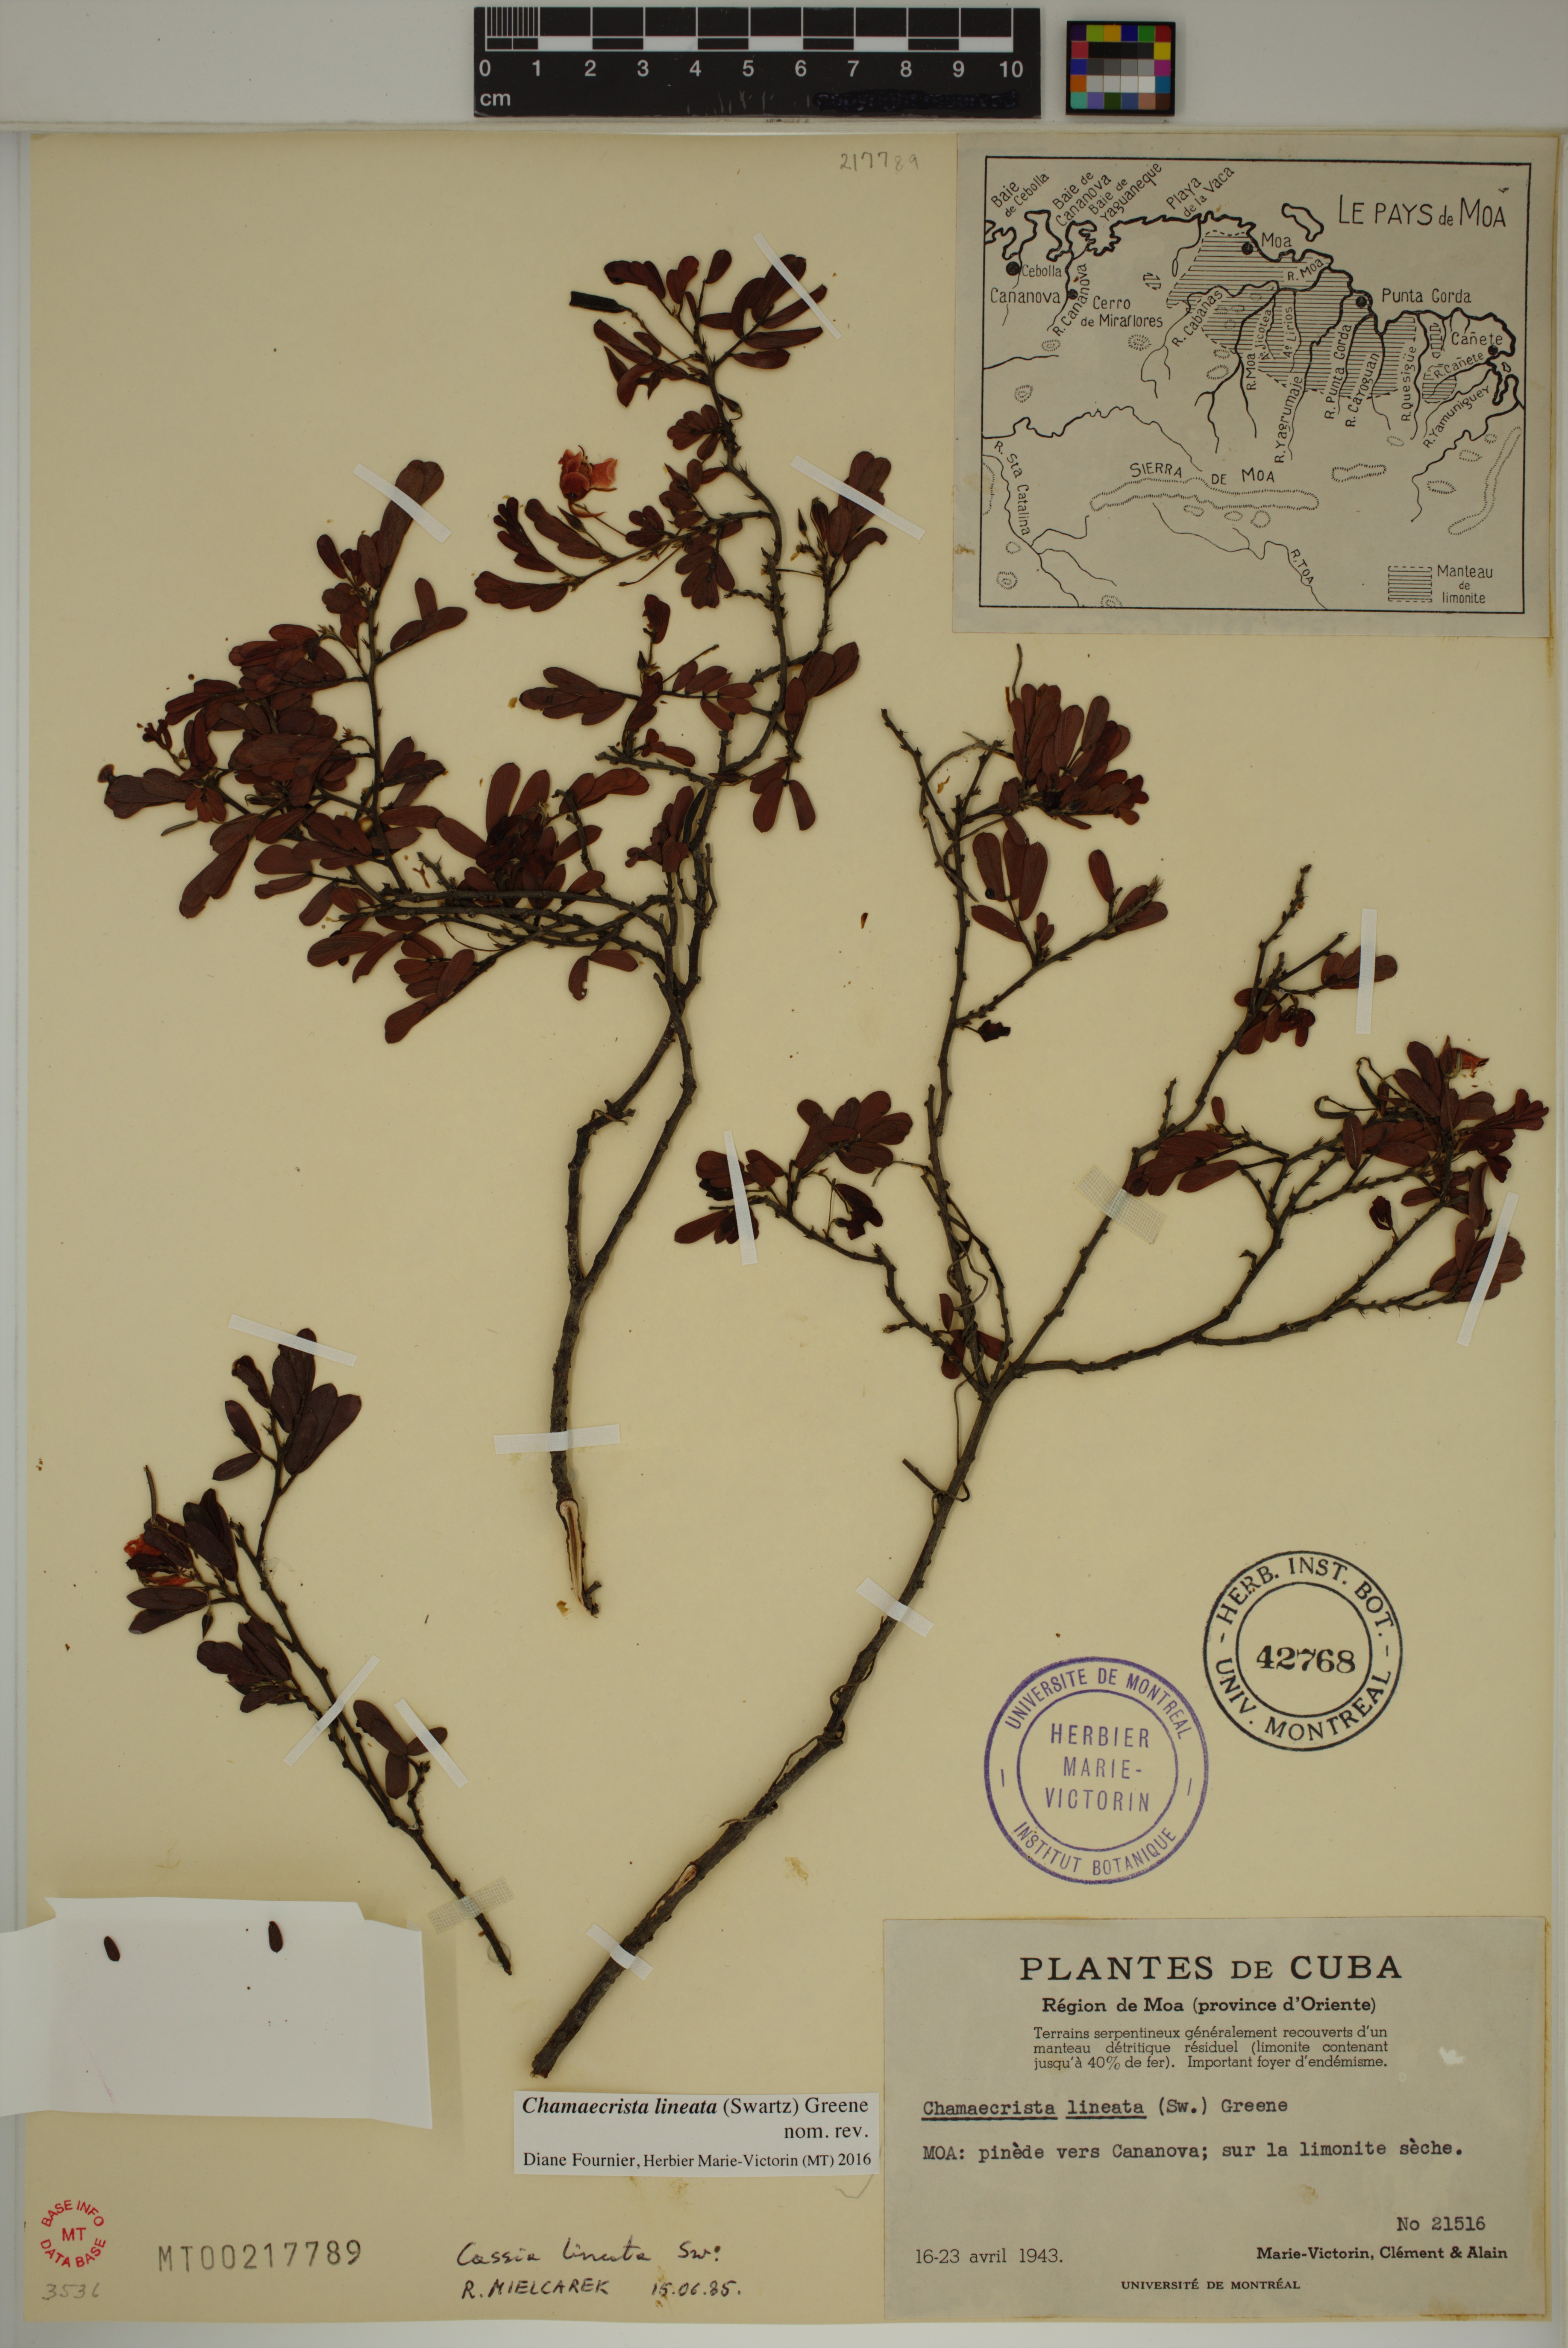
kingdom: Plantae
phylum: Tracheophyta
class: Magnoliopsida
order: Fabales
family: Fabaceae
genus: Chamaecrista
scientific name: Chamaecrista lineata
